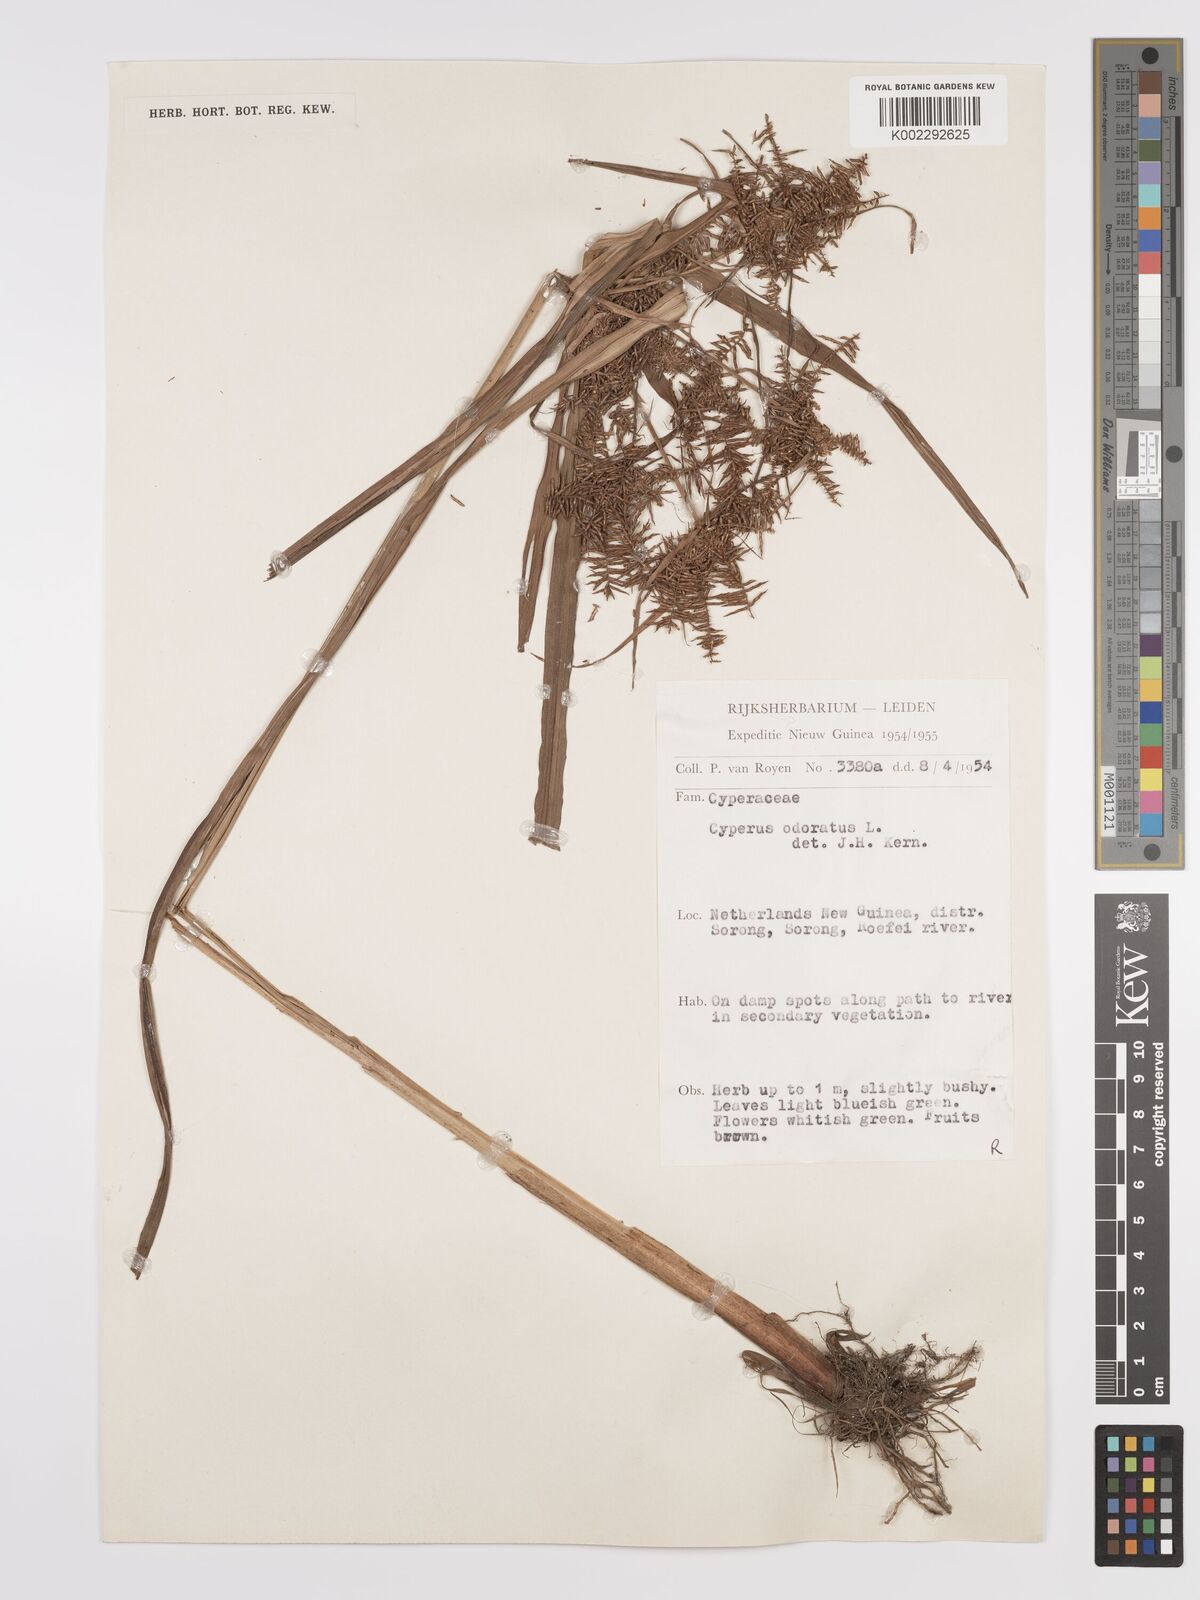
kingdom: Plantae
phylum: Tracheophyta
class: Liliopsida
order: Poales
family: Cyperaceae
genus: Cyperus
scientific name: Cyperus odoratus
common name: Fragrant flatsedge
